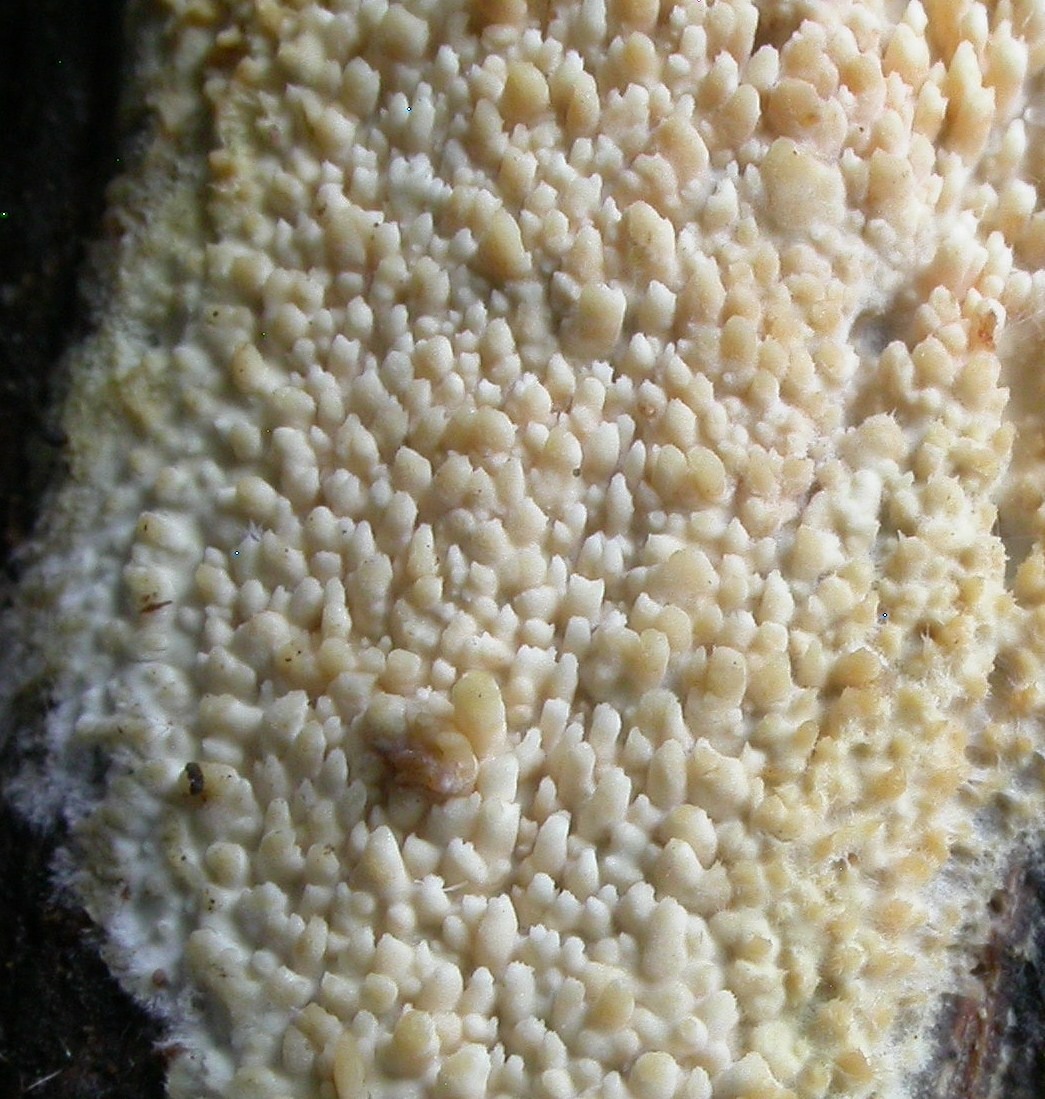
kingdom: Fungi
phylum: Basidiomycota
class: Agaricomycetes
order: Corticiales
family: Corticiaceae
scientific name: Corticiaceae
